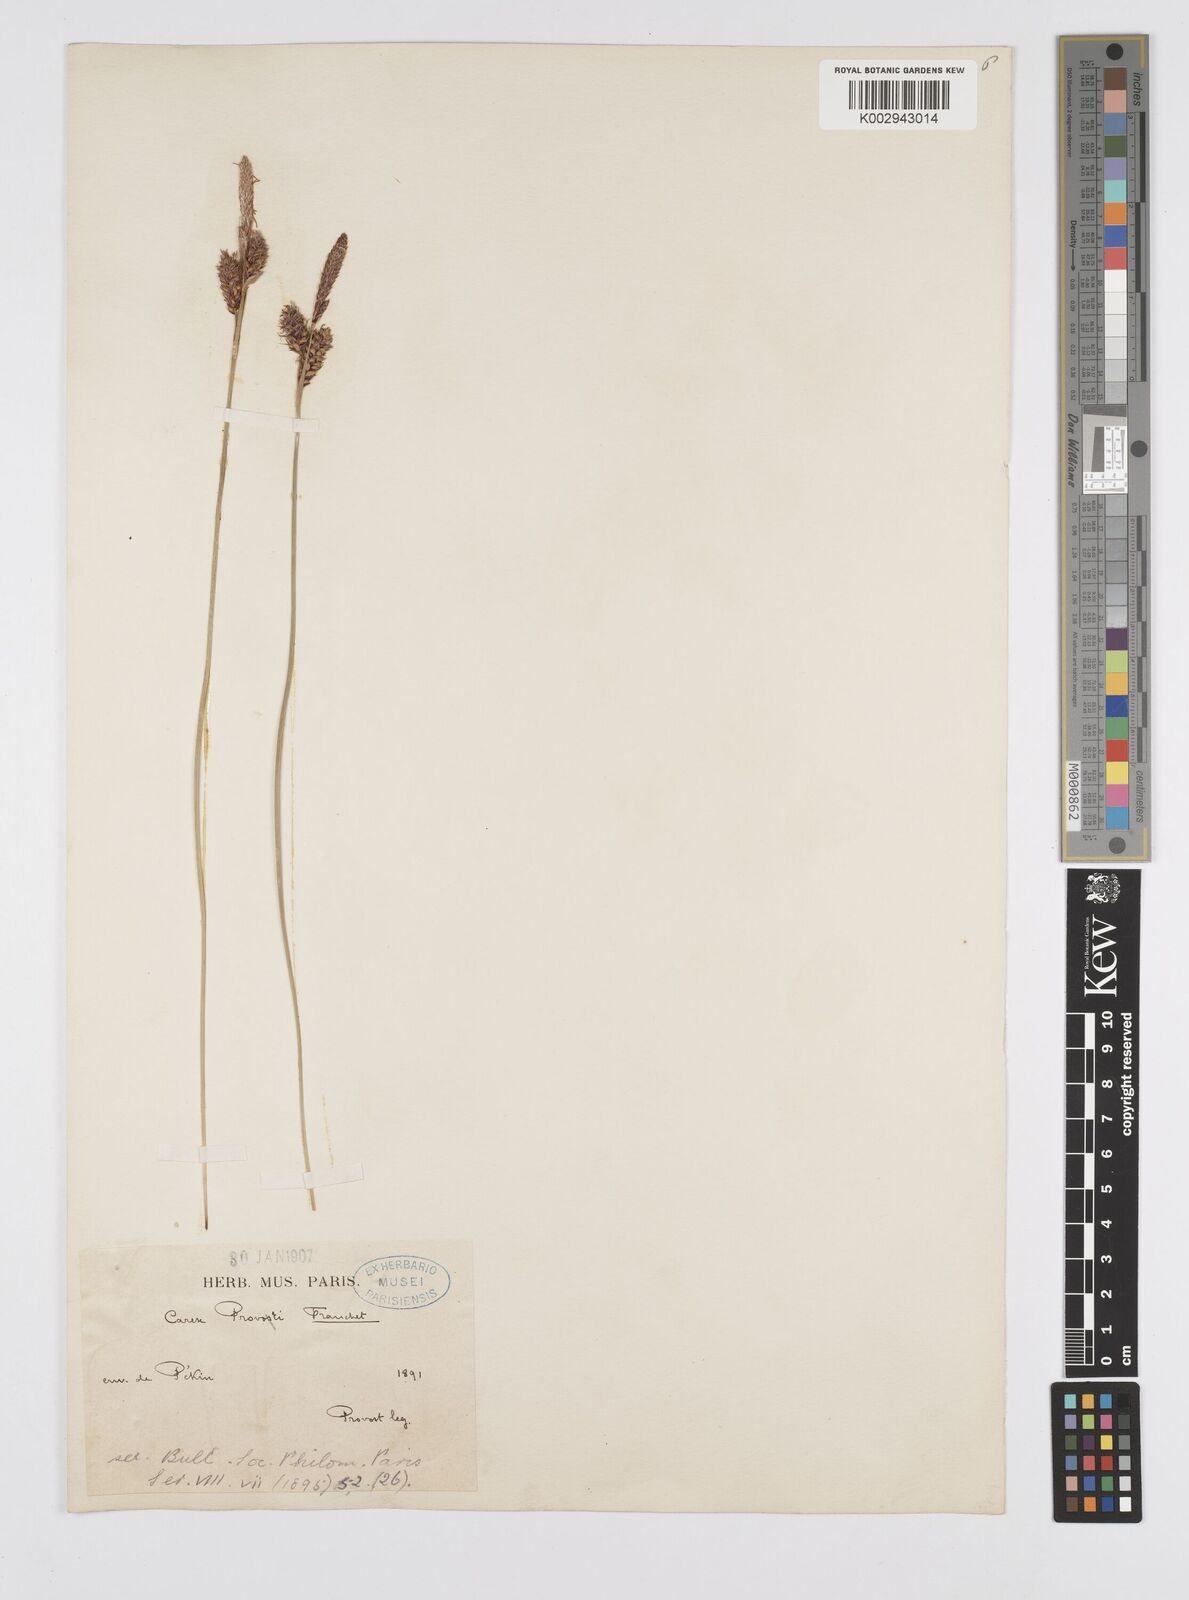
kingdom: Plantae
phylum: Tracheophyta
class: Liliopsida
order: Poales
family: Cyperaceae
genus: Carex
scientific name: Carex provotii
